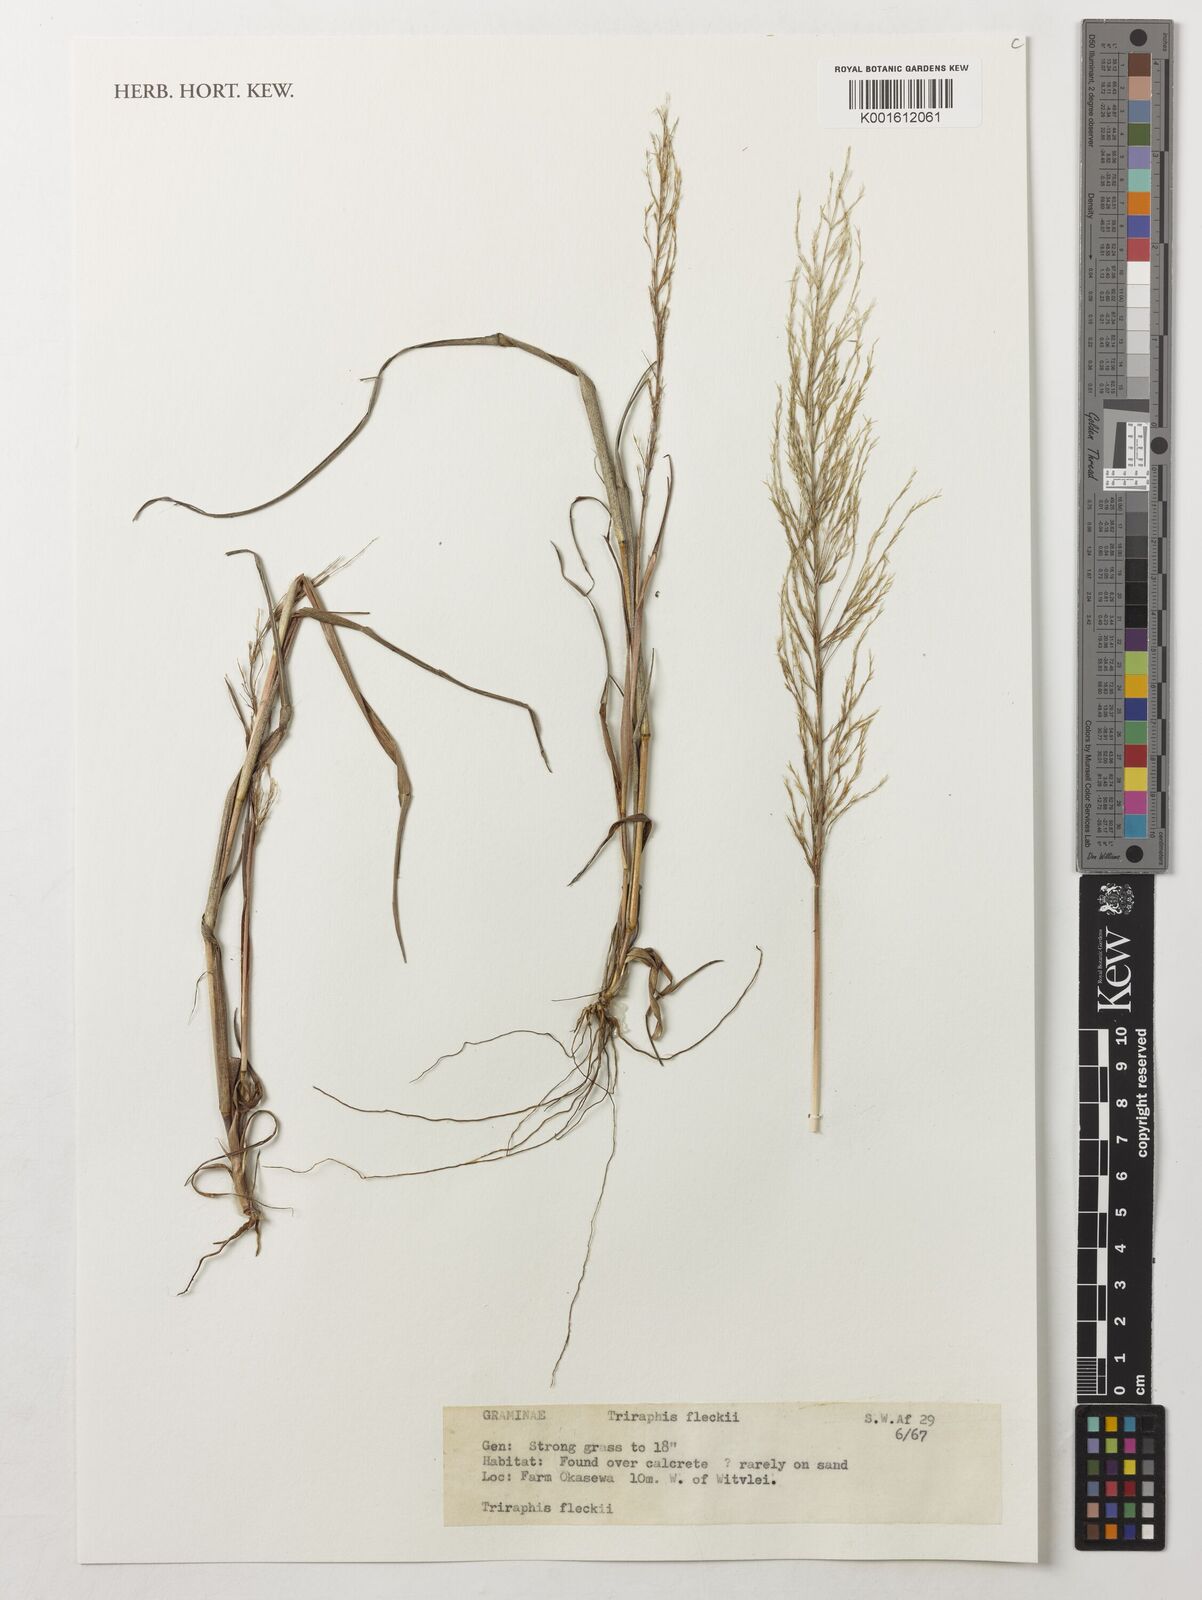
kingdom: Plantae
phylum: Tracheophyta
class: Liliopsida
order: Poales
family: Poaceae
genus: Triraphis
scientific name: Triraphis purpurea
